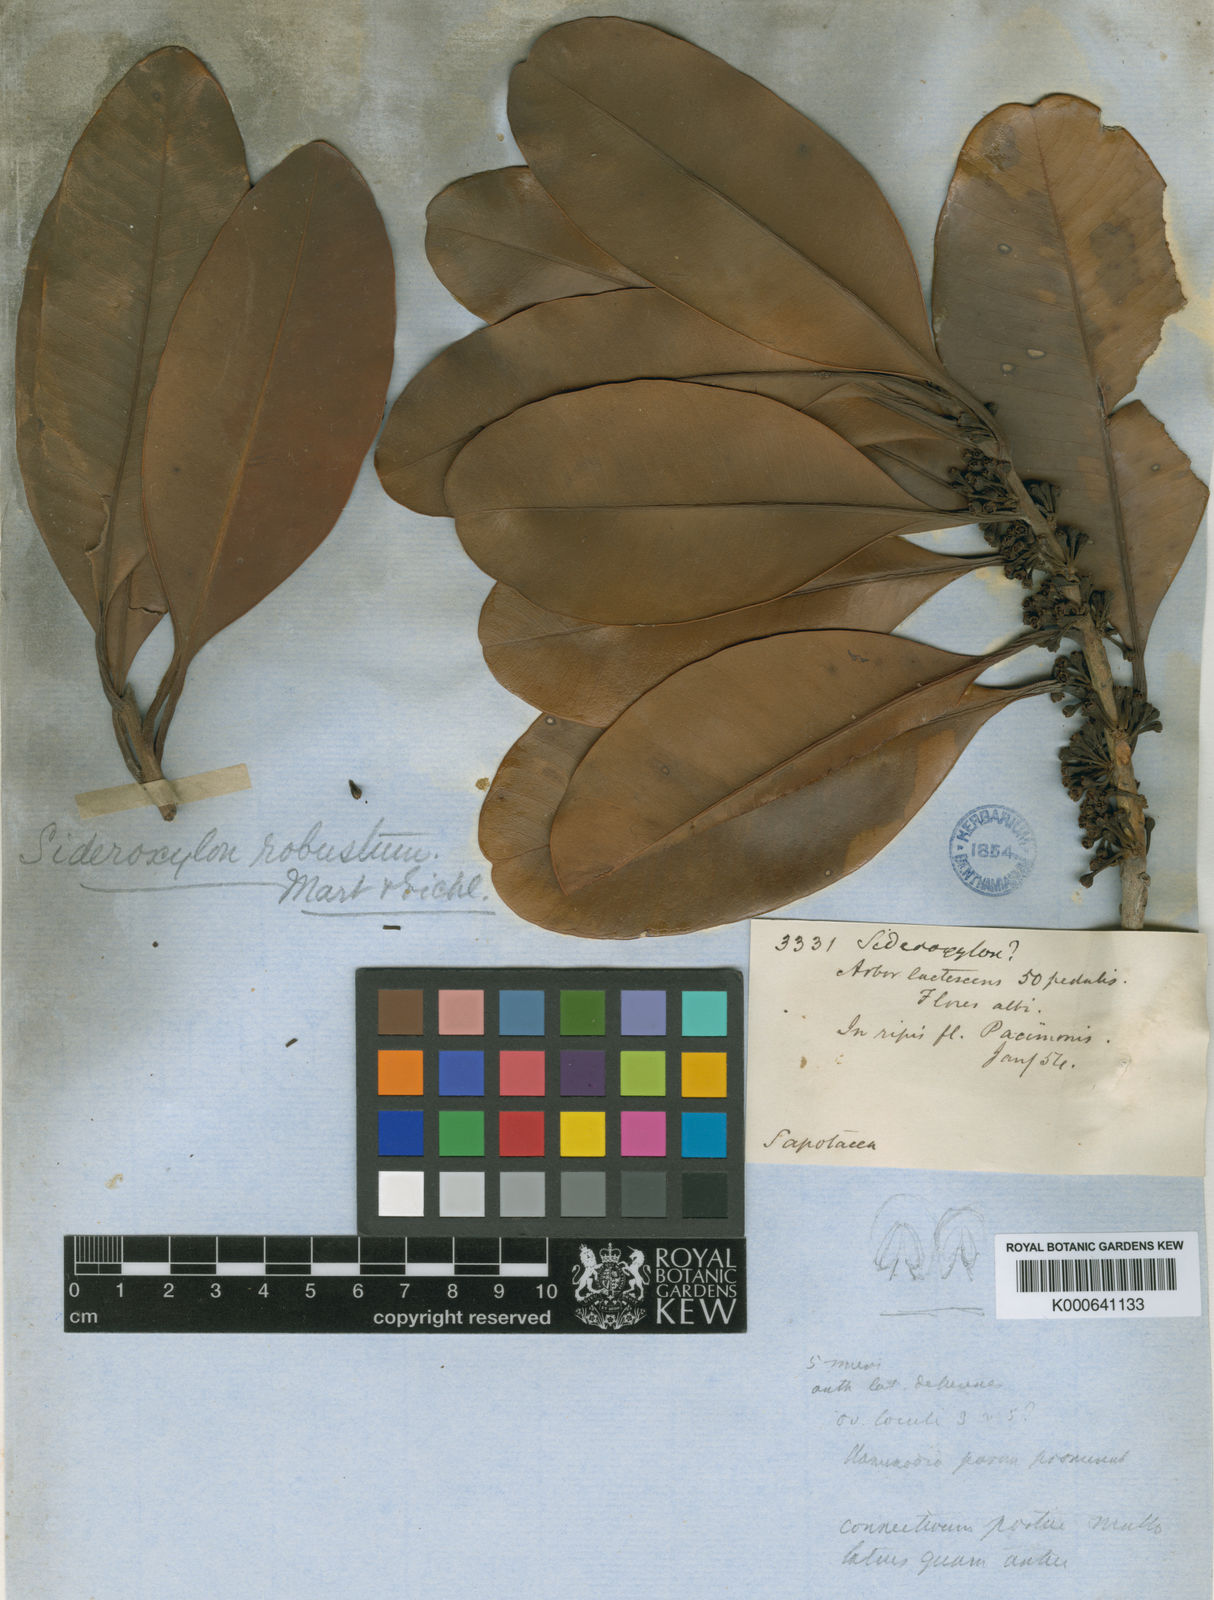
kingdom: Plantae
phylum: Tracheophyta
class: Magnoliopsida
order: Ericales
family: Sapotaceae
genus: Pouteria
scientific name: Pouteria cuspidata
